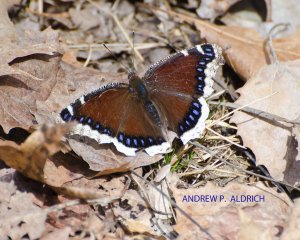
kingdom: Animalia
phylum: Arthropoda
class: Insecta
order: Lepidoptera
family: Nymphalidae
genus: Nymphalis
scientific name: Nymphalis antiopa
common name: Mourning Cloak
